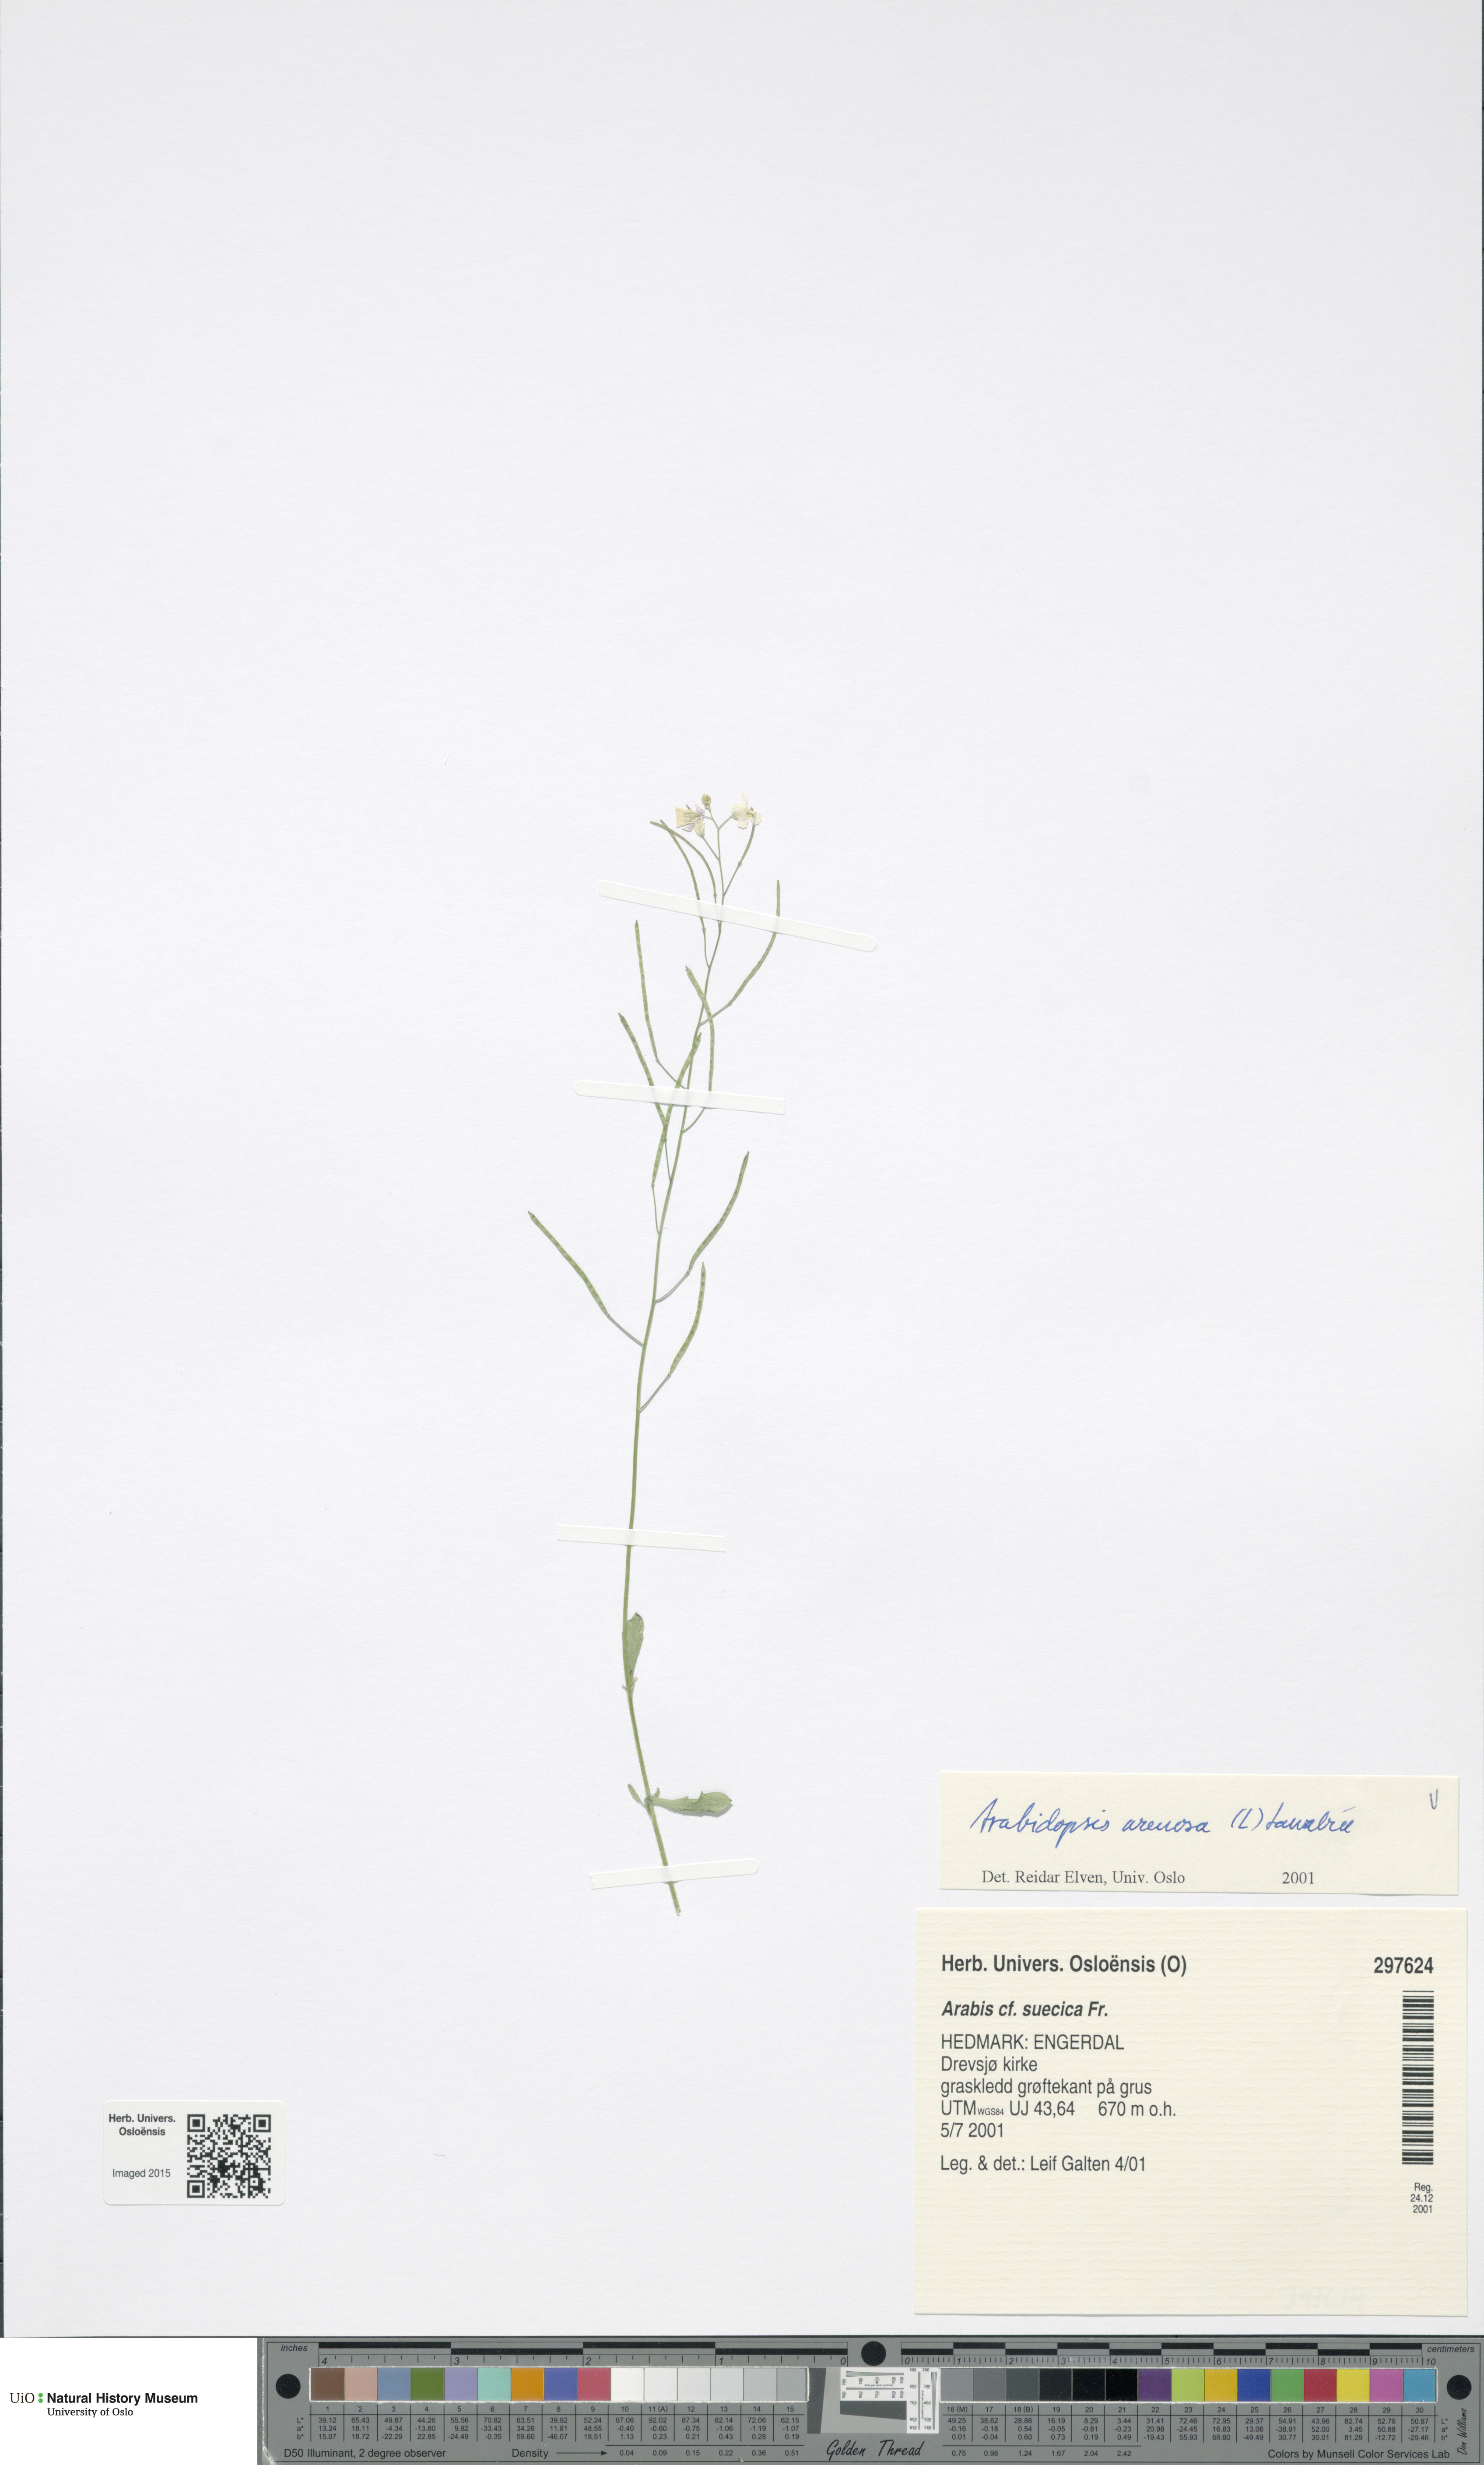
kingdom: Plantae
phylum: Tracheophyta
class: Magnoliopsida
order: Brassicales
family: Brassicaceae
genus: Arabidopsis
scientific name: Arabidopsis arenosa
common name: Sand rock-cress
